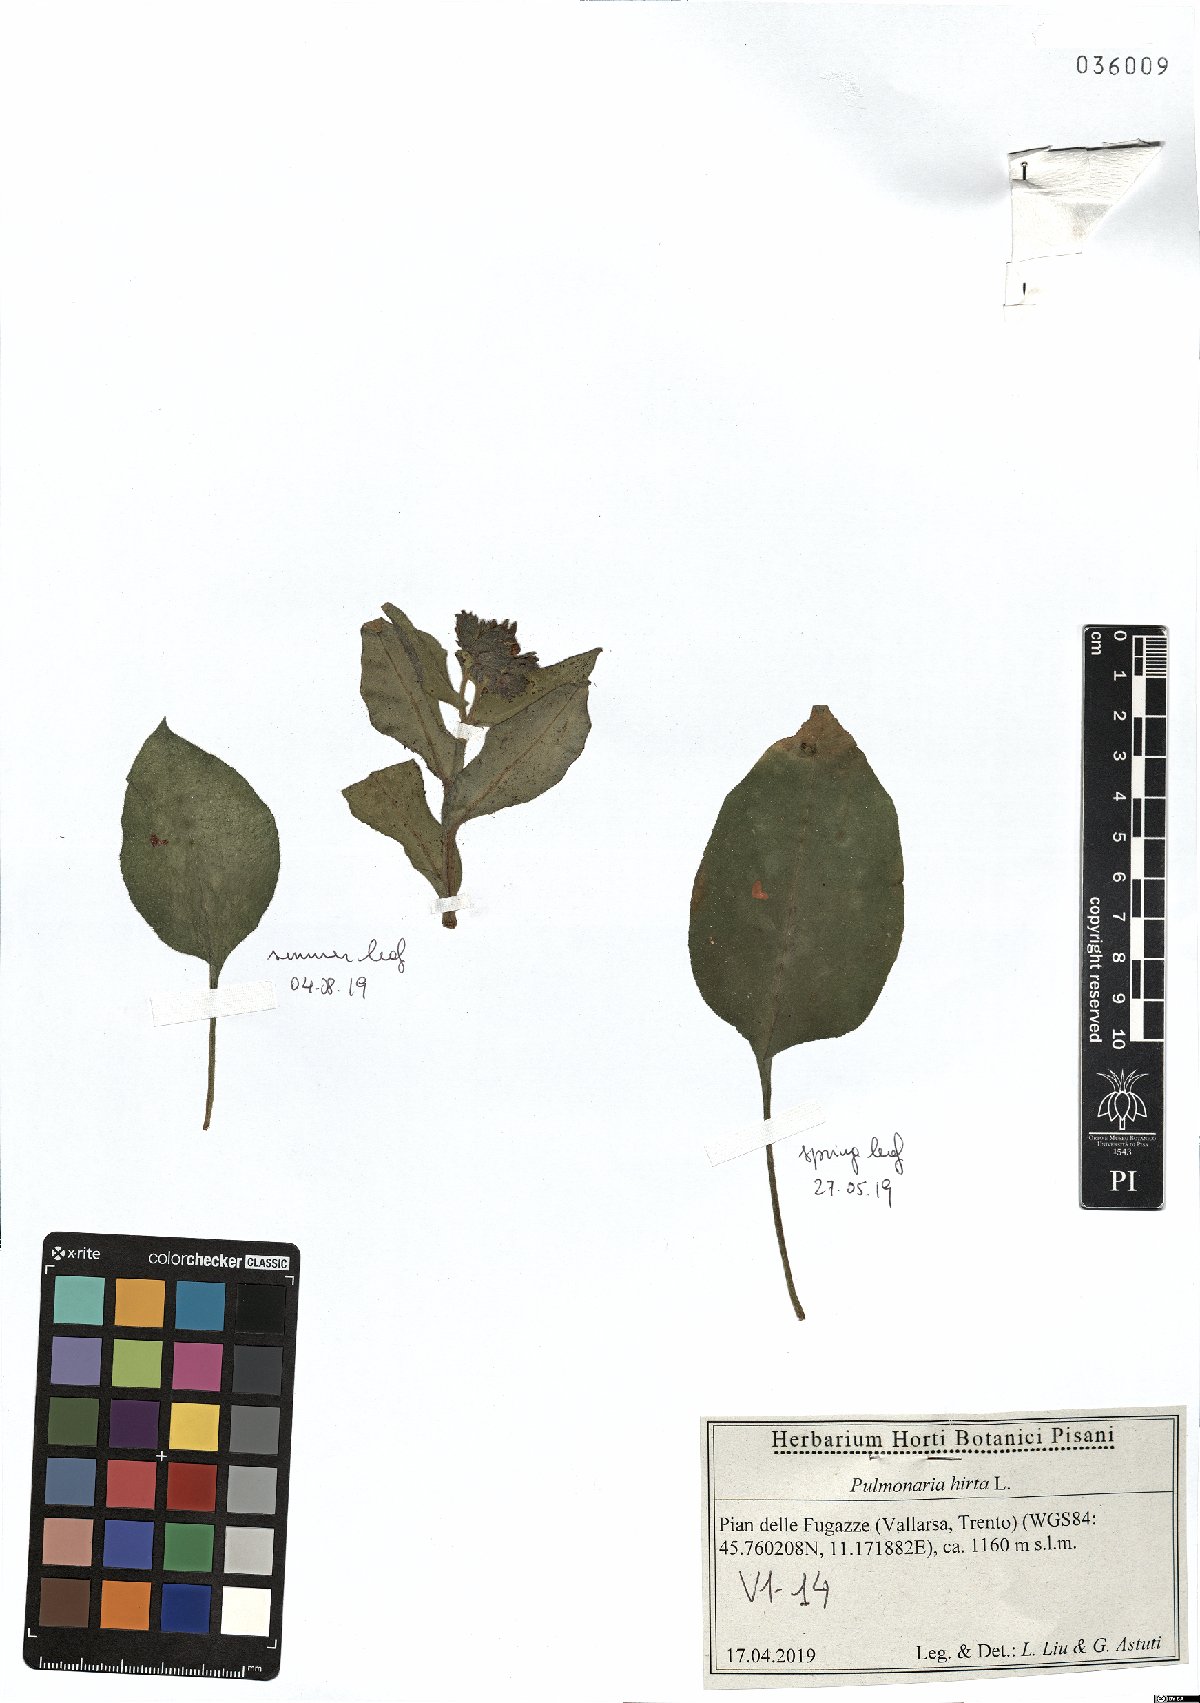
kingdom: Plantae
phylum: Tracheophyta
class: Magnoliopsida
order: Boraginales
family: Boraginaceae
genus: Pulmonaria
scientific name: Pulmonaria hirta
